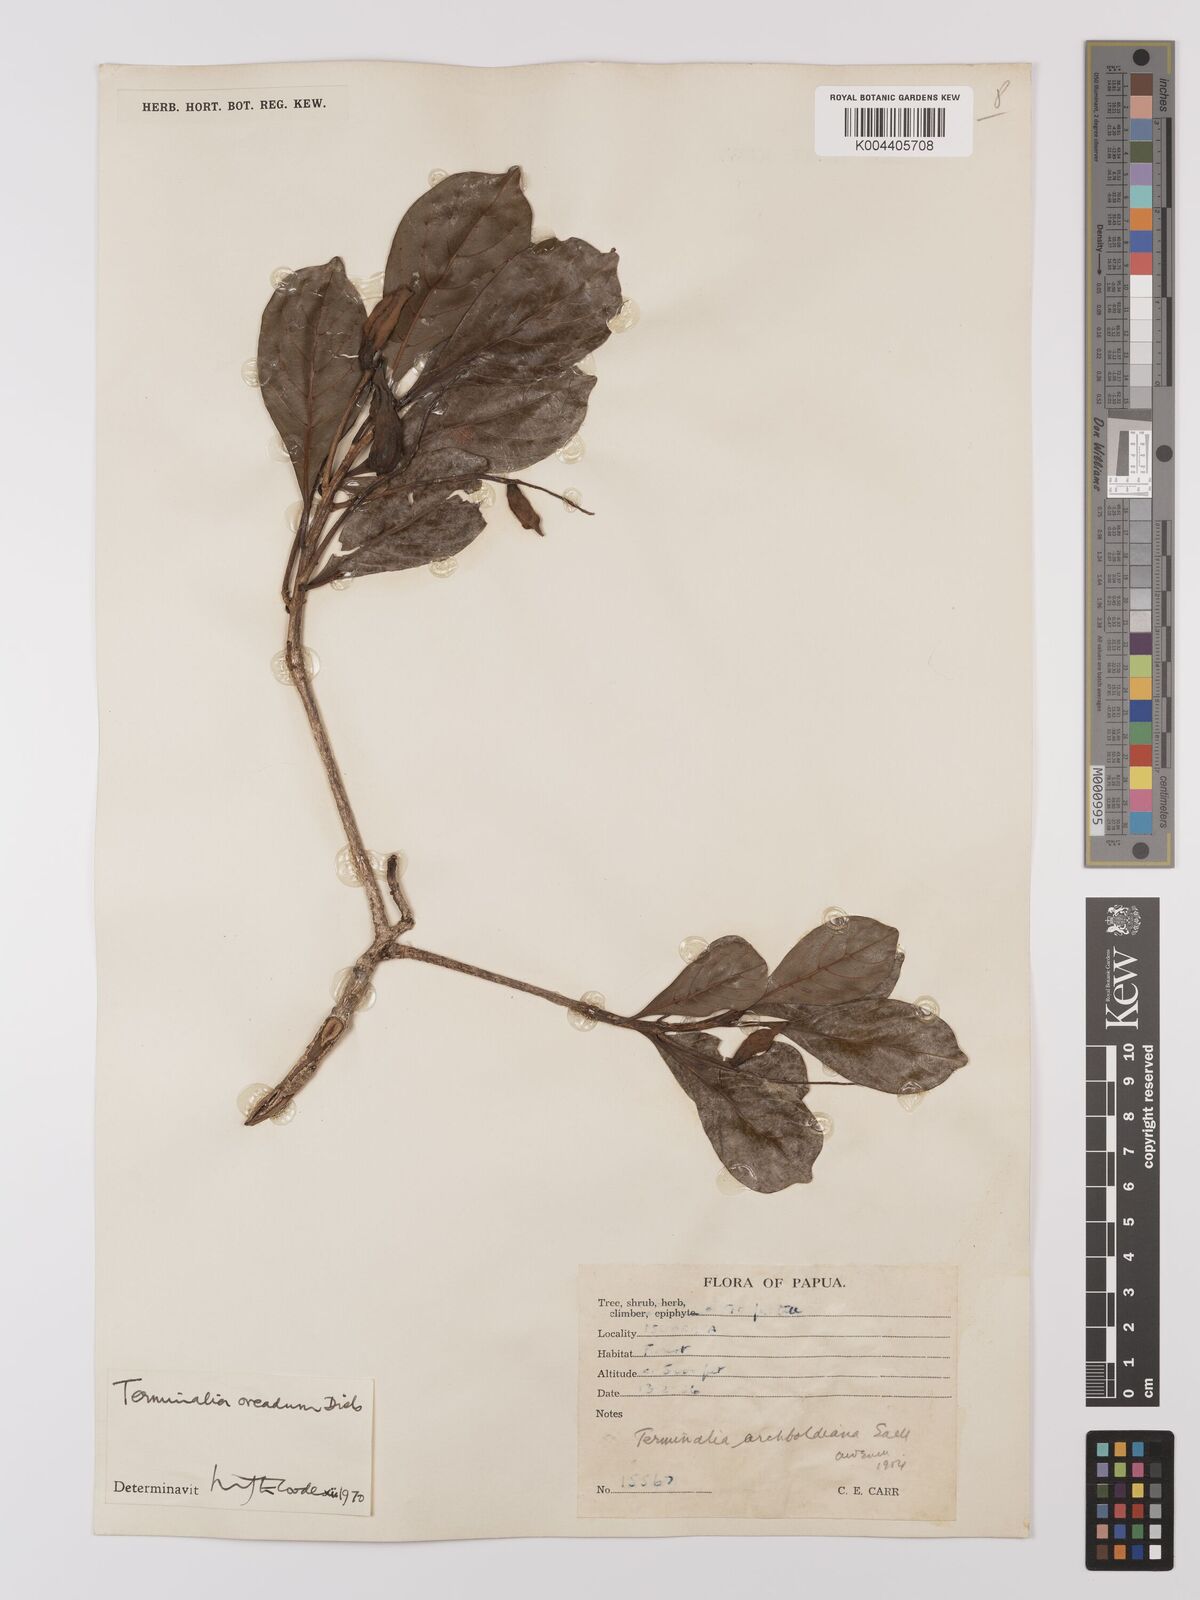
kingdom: Plantae
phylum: Tracheophyta
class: Magnoliopsida
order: Myrtales
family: Combretaceae
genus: Terminalia
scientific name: Terminalia oreadum
